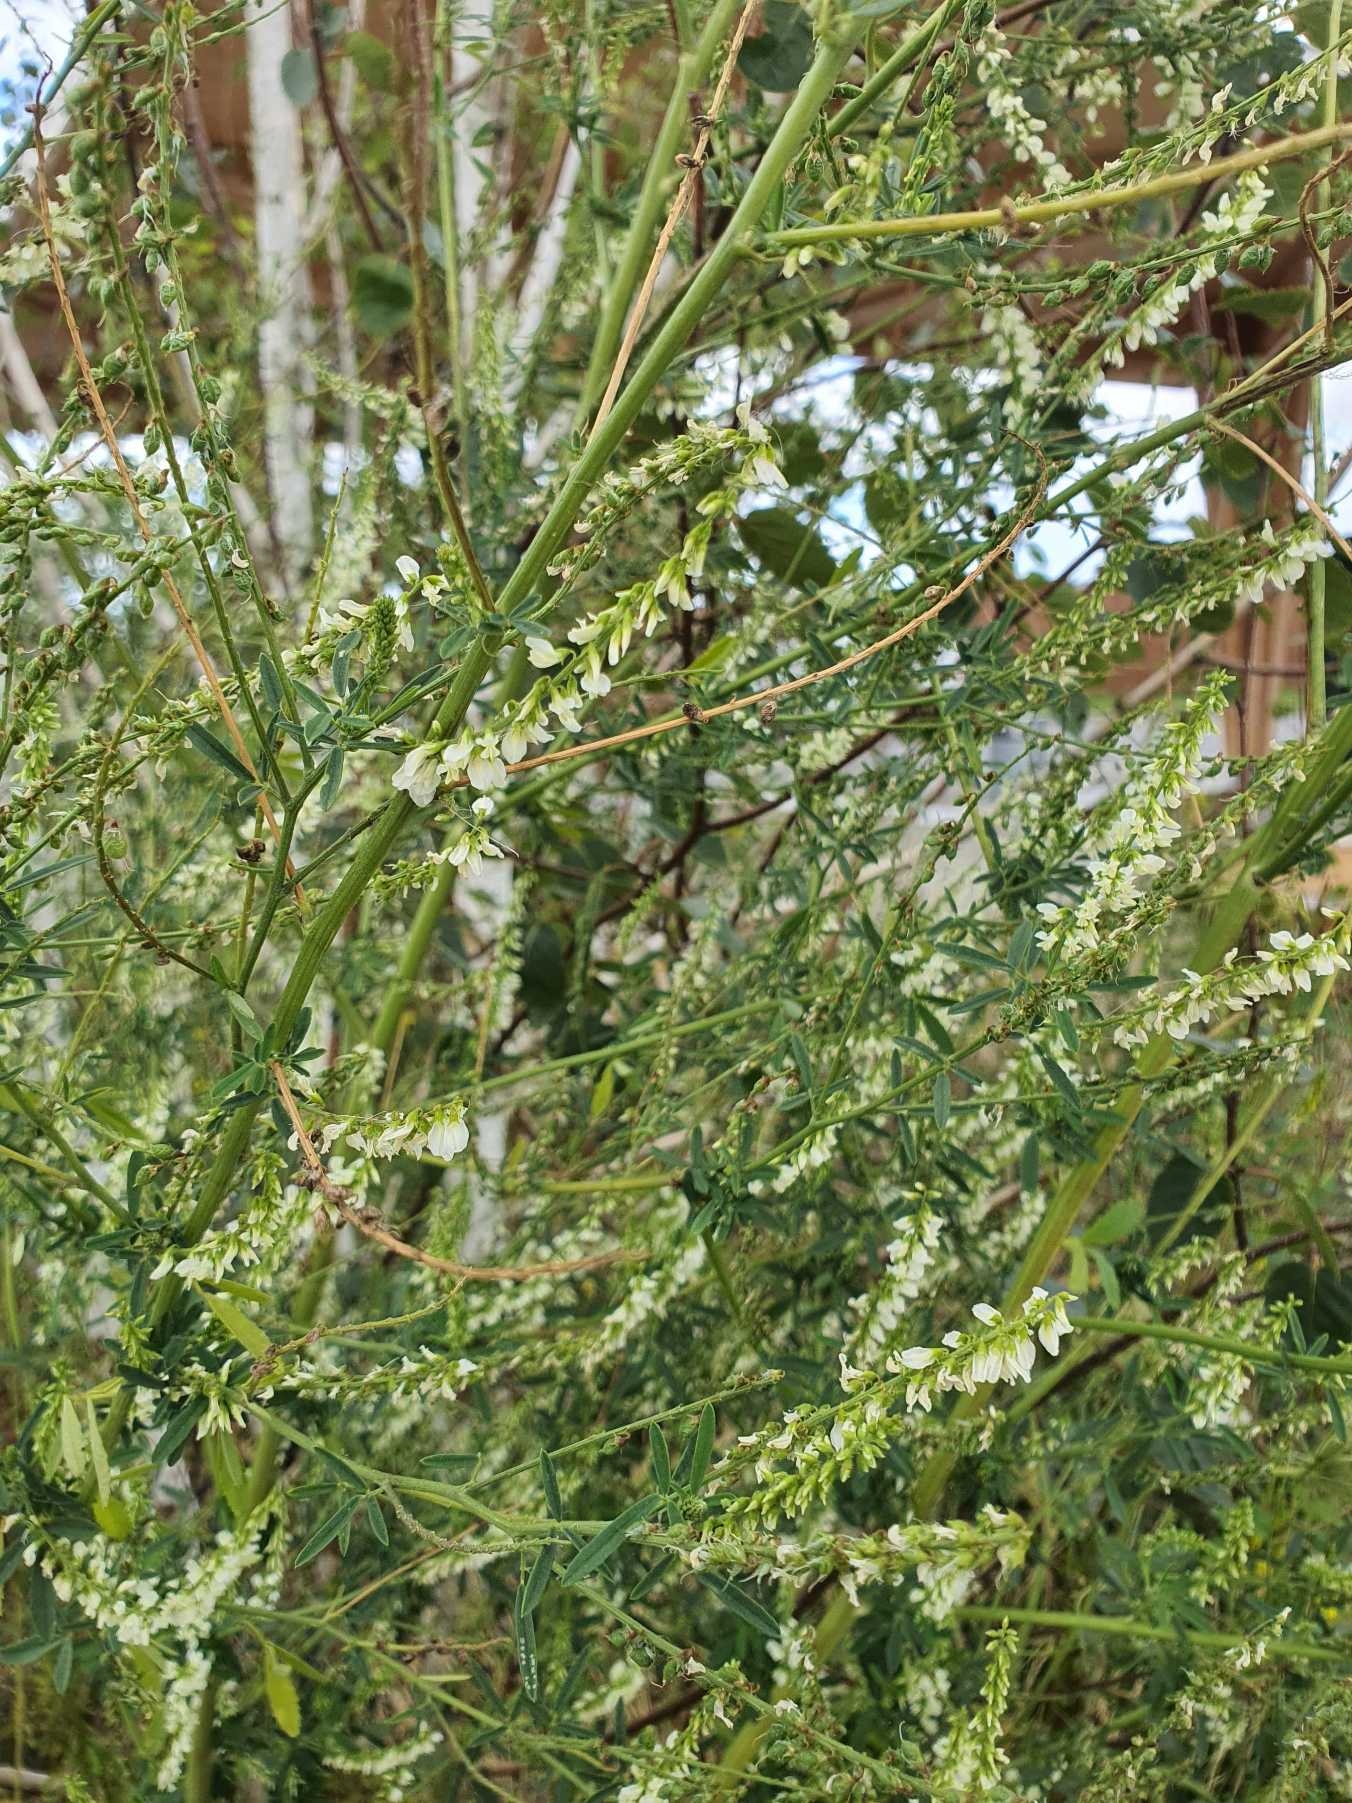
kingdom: Plantae
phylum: Tracheophyta
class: Magnoliopsida
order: Fabales
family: Fabaceae
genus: Melilotus
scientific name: Melilotus albus
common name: Hvid stenkløver
